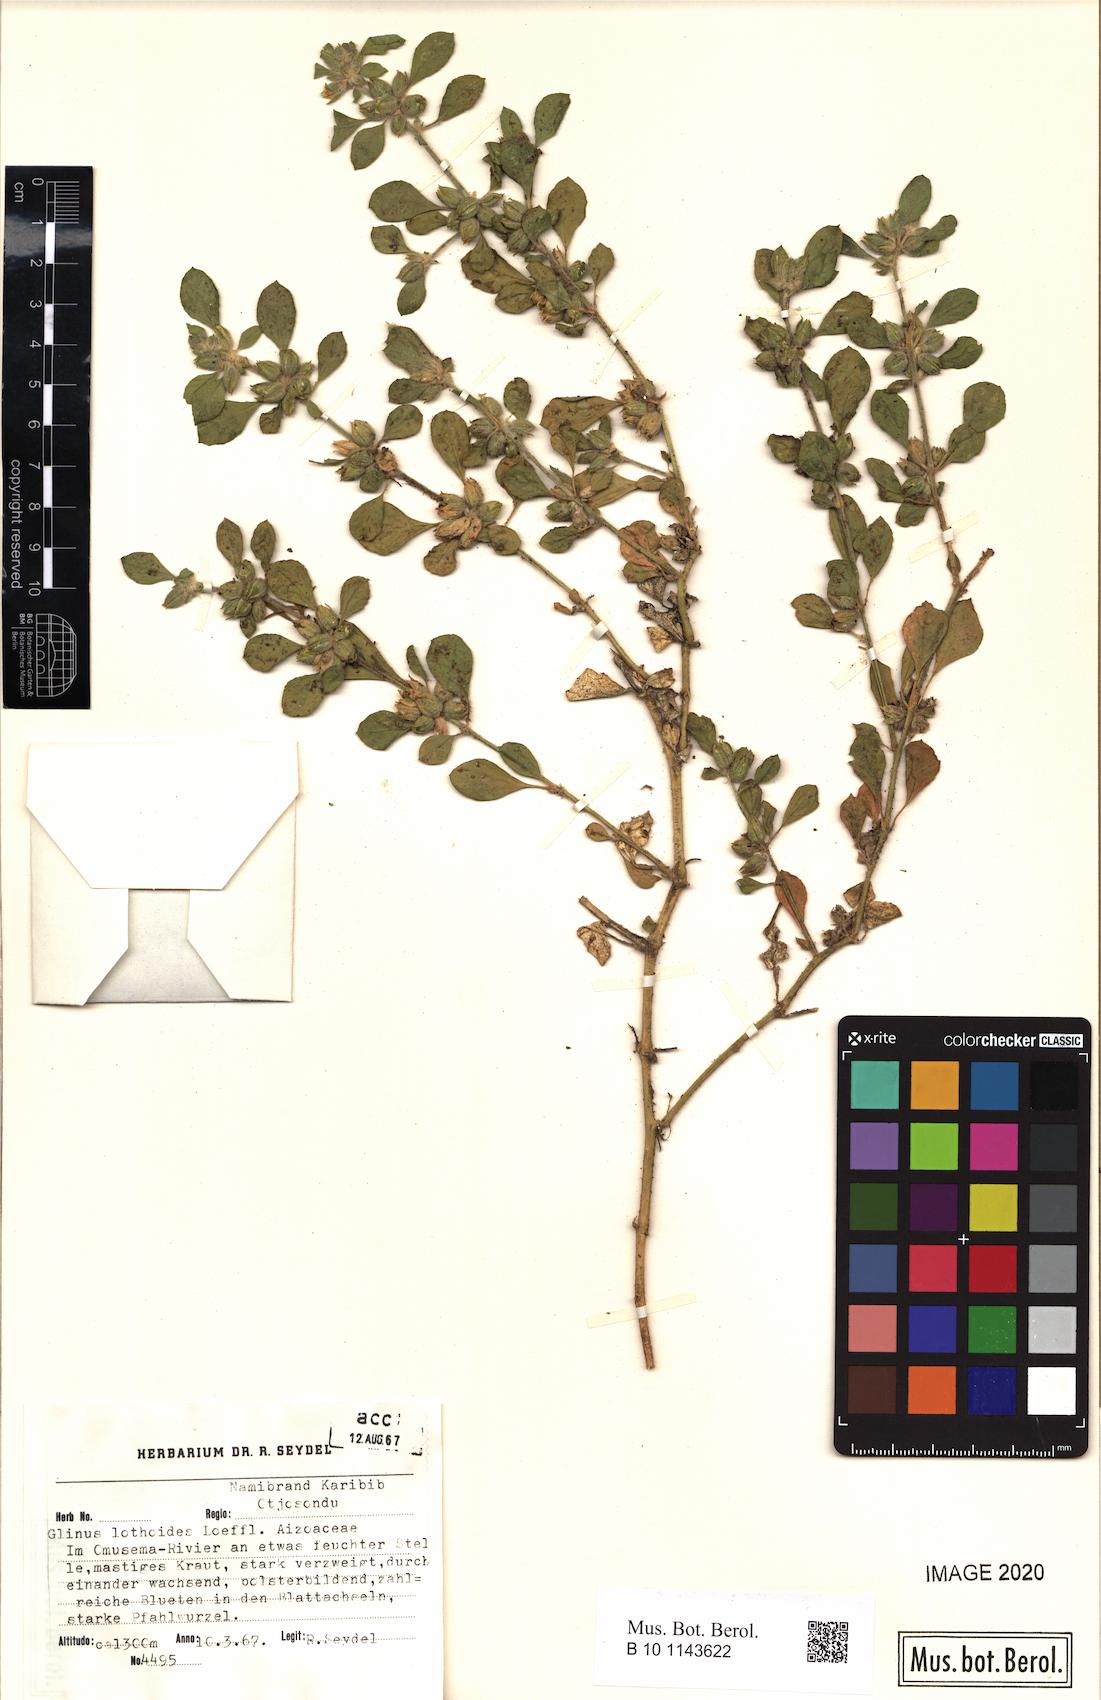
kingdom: Plantae
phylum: Tracheophyta
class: Magnoliopsida
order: Caryophyllales
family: Molluginaceae
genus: Glinus
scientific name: Glinus lotoides
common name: Lotus sweetjuice
